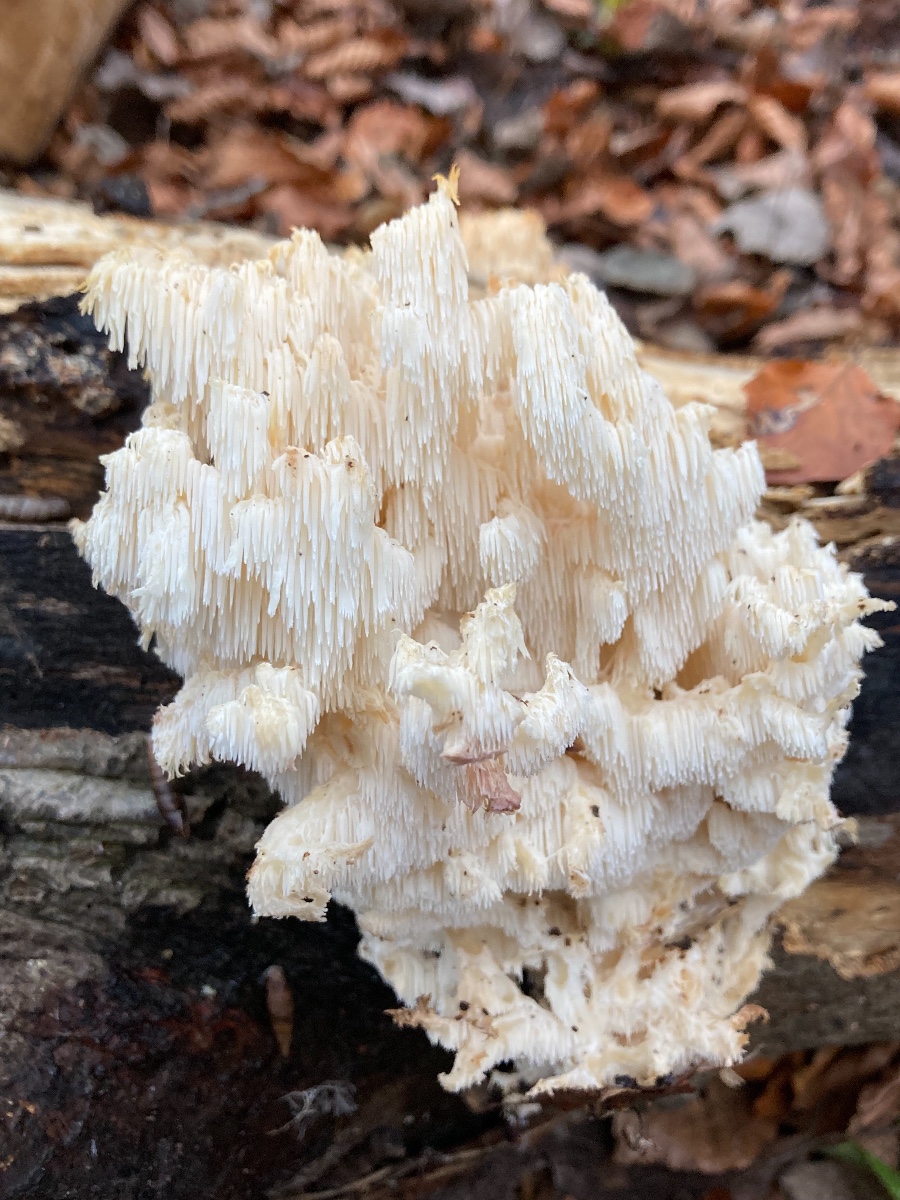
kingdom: Fungi
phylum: Basidiomycota
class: Agaricomycetes
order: Russulales
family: Hericiaceae
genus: Hericium
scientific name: Hericium coralloides
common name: koralpigsvamp
